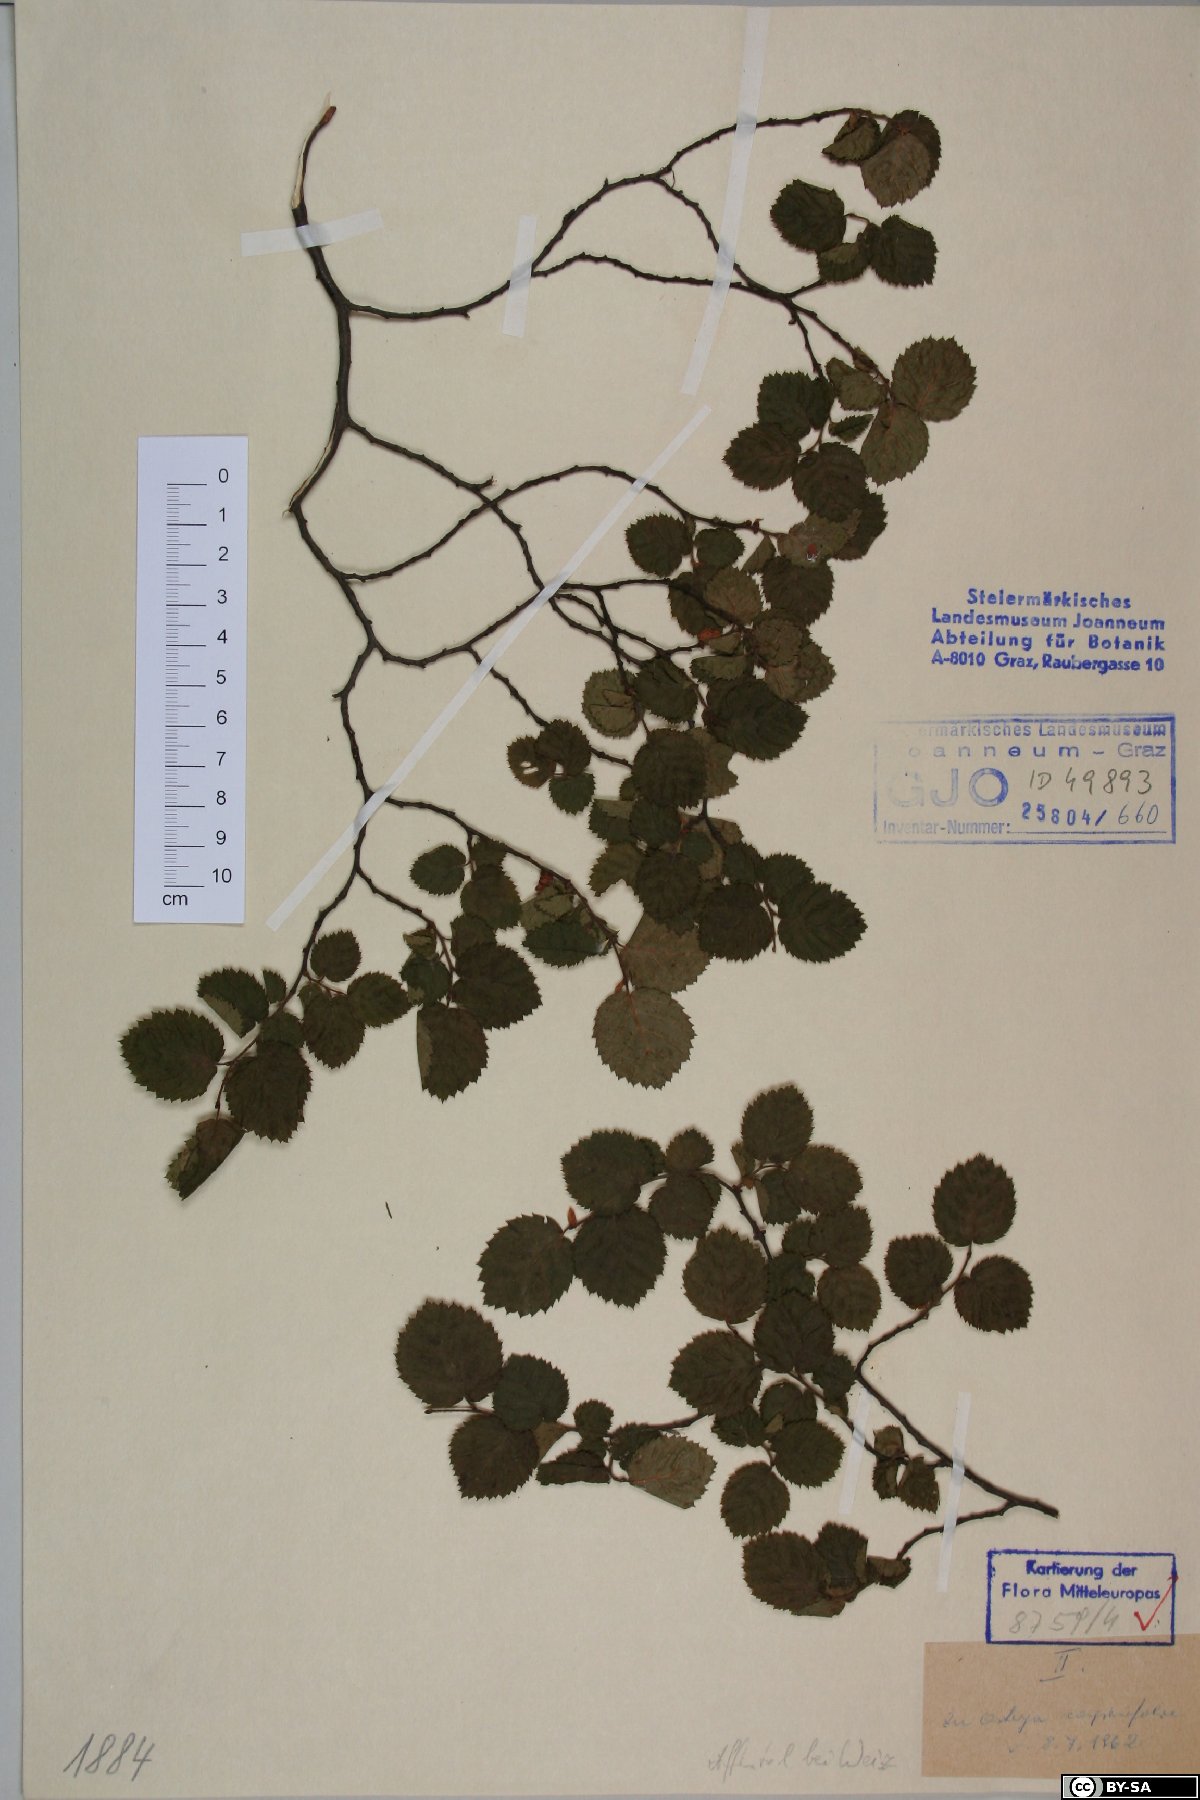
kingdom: Plantae
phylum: Tracheophyta
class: Magnoliopsida
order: Fagales
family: Betulaceae
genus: Ostrya
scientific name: Ostrya carpinifolia
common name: European hop-hornbeam
